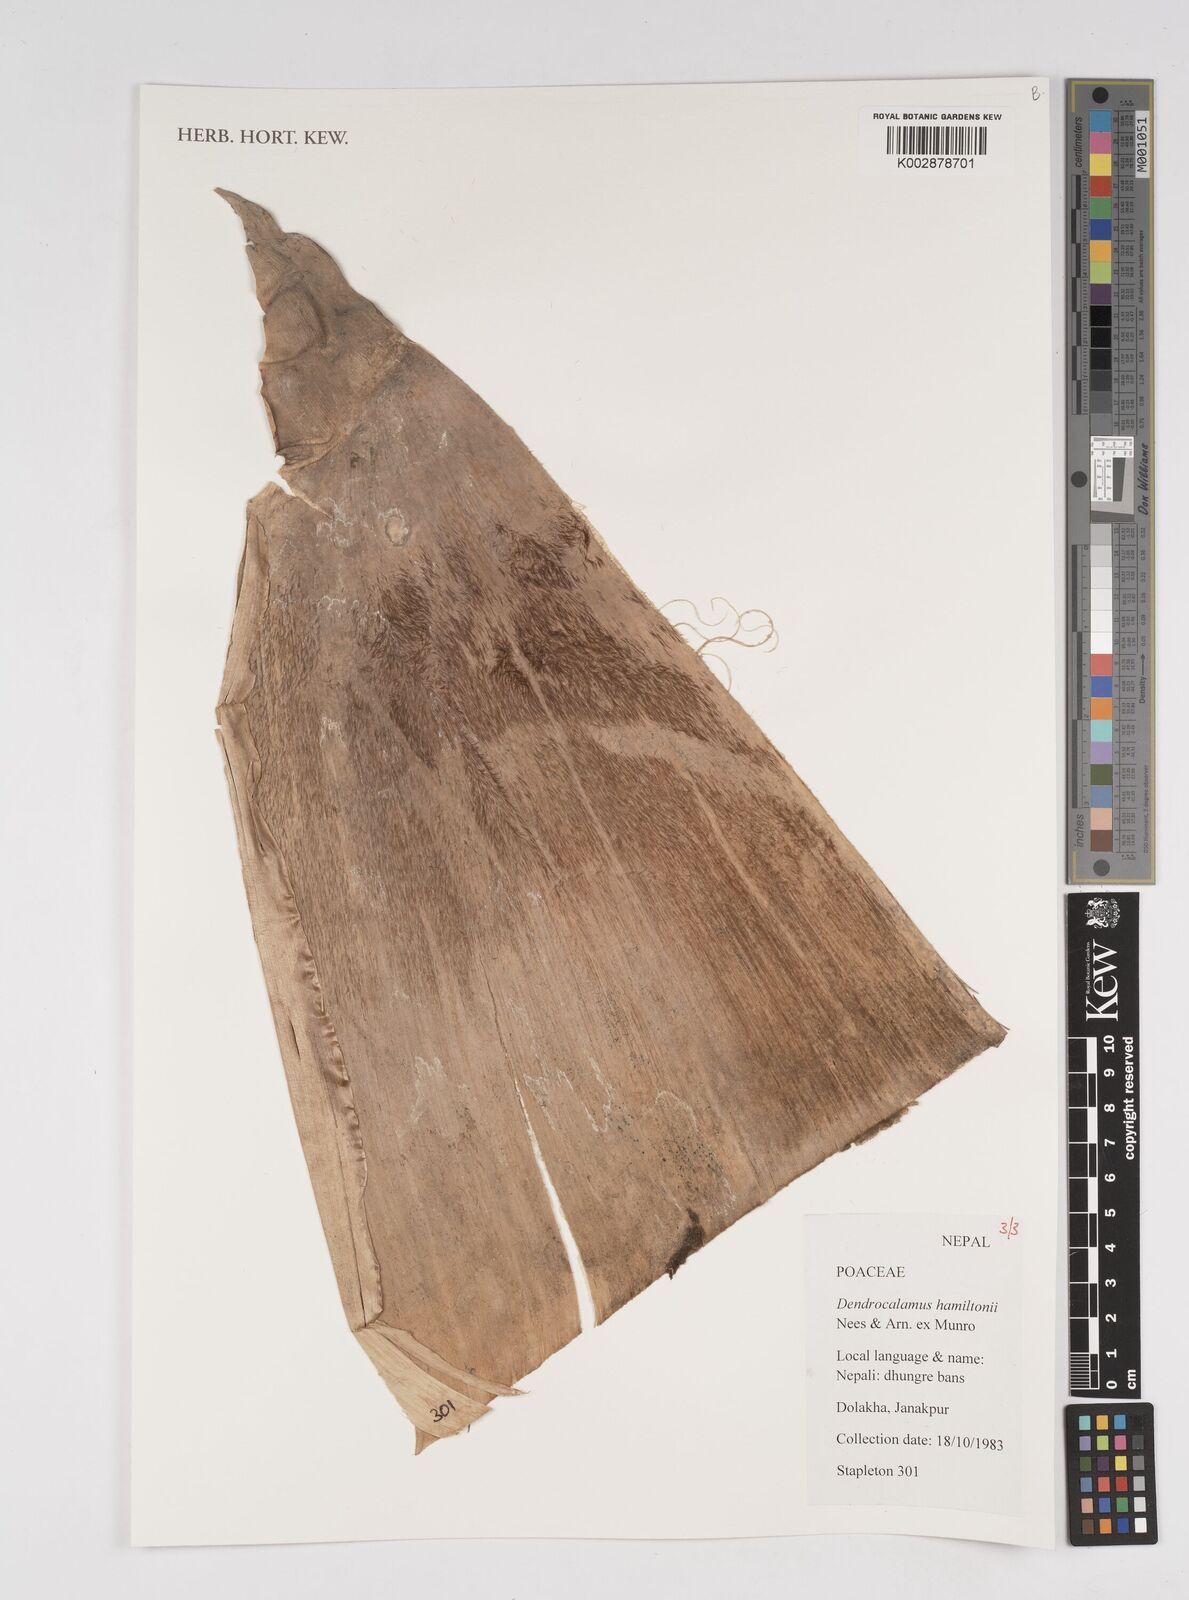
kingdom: Plantae
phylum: Tracheophyta
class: Liliopsida
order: Poales
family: Poaceae
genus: Dendrocalamus
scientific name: Dendrocalamus hamiltonii
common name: Tama bamboo
